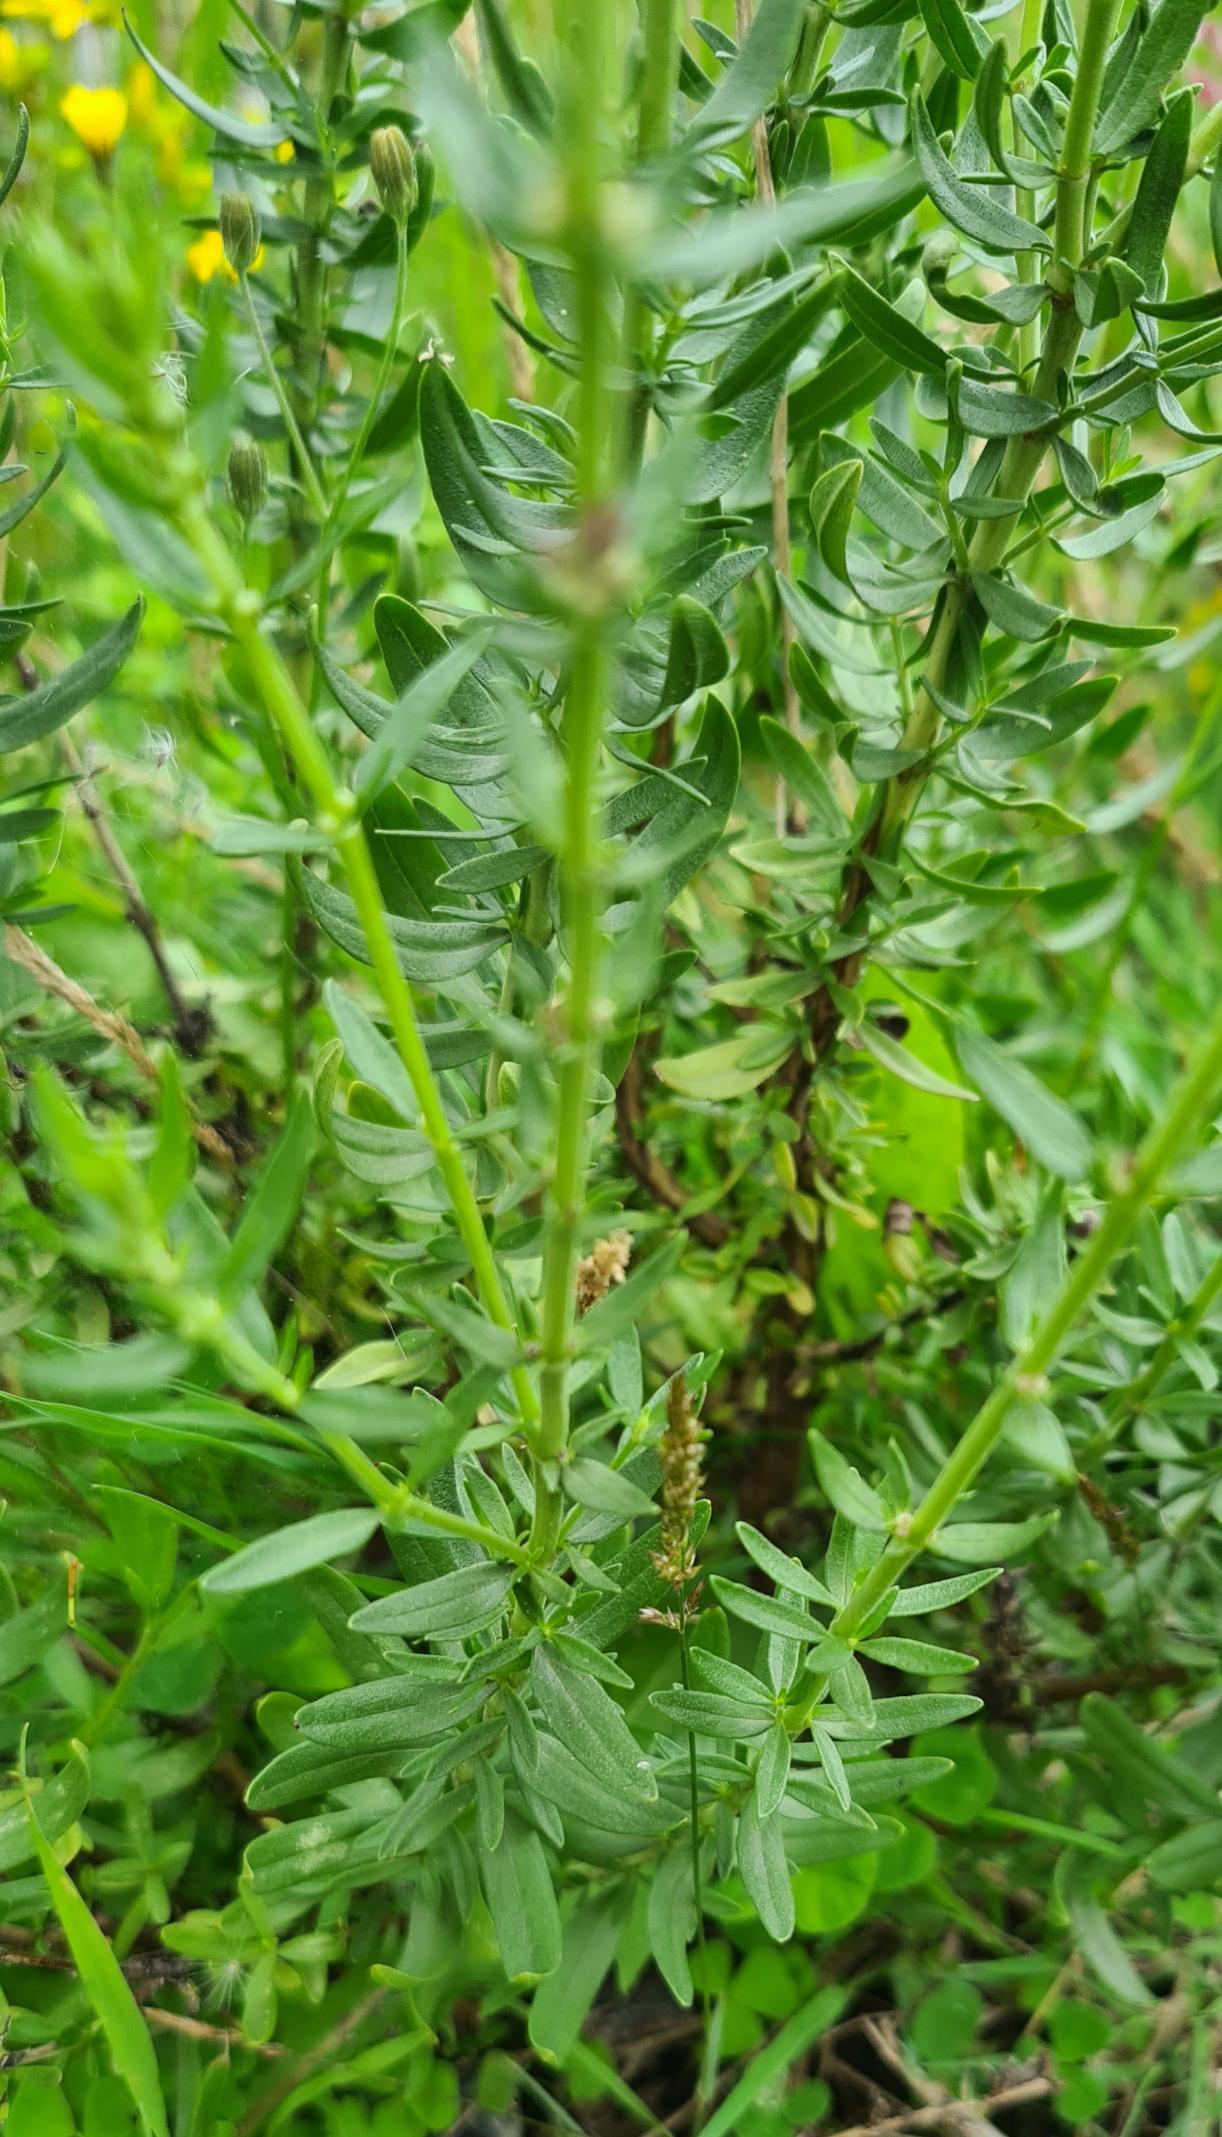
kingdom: Plantae
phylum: Tracheophyta
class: Magnoliopsida
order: Lamiales
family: Lamiaceae
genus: Hyssopus
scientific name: Hyssopus officinalis
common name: Isop
